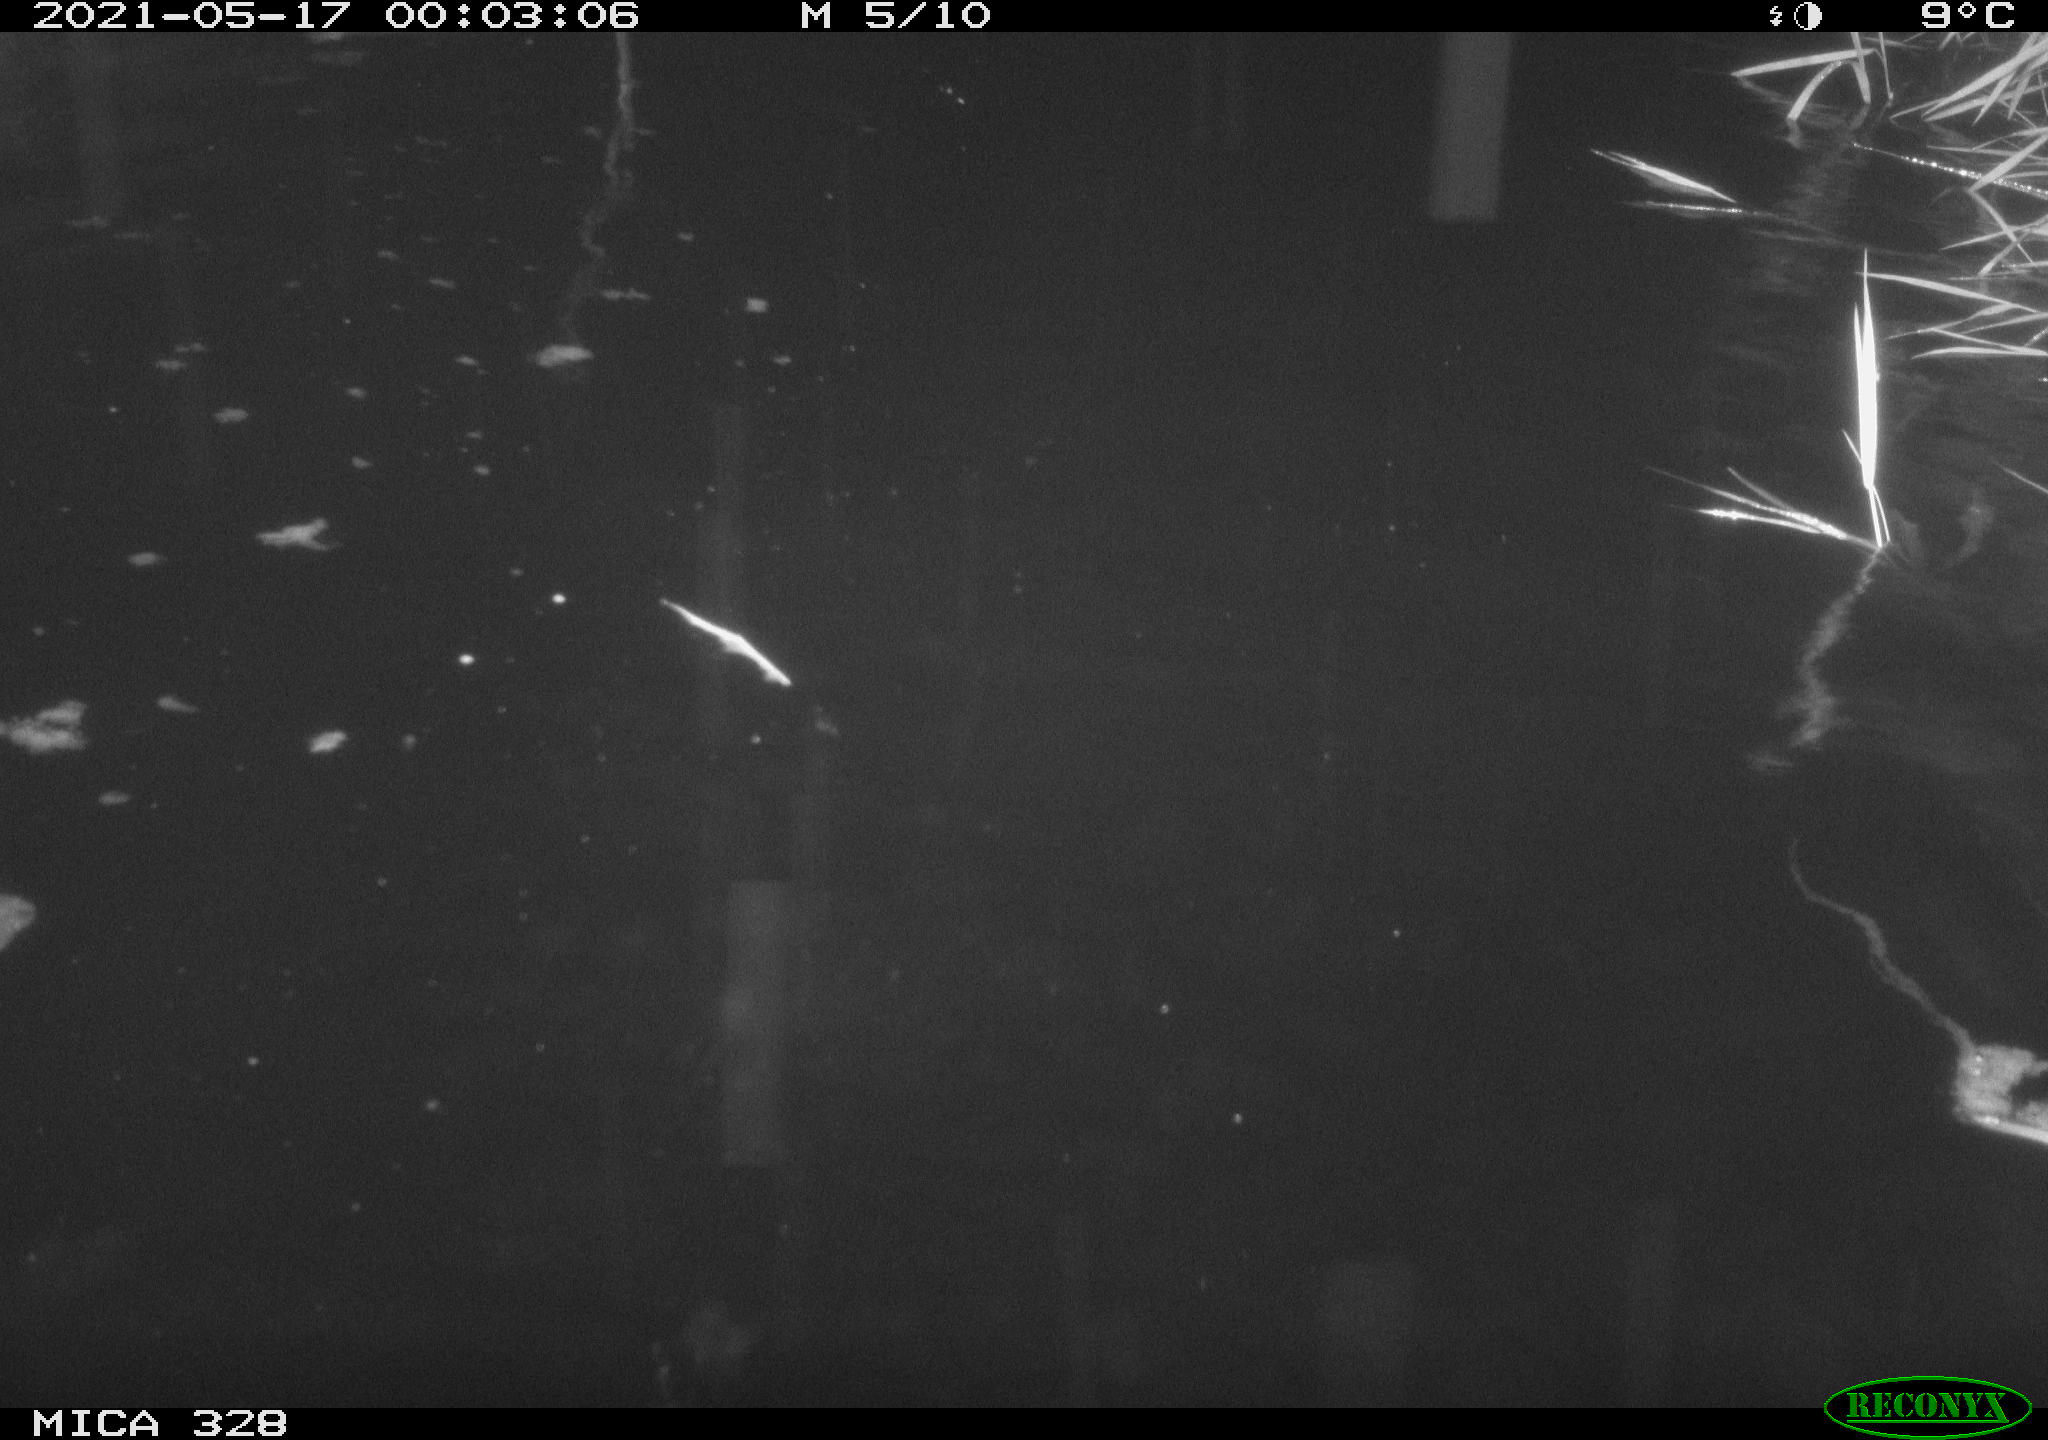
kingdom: Animalia
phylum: Chordata
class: Mammalia
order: Rodentia
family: Cricetidae
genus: Ondatra
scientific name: Ondatra zibethicus
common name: Muskrat
